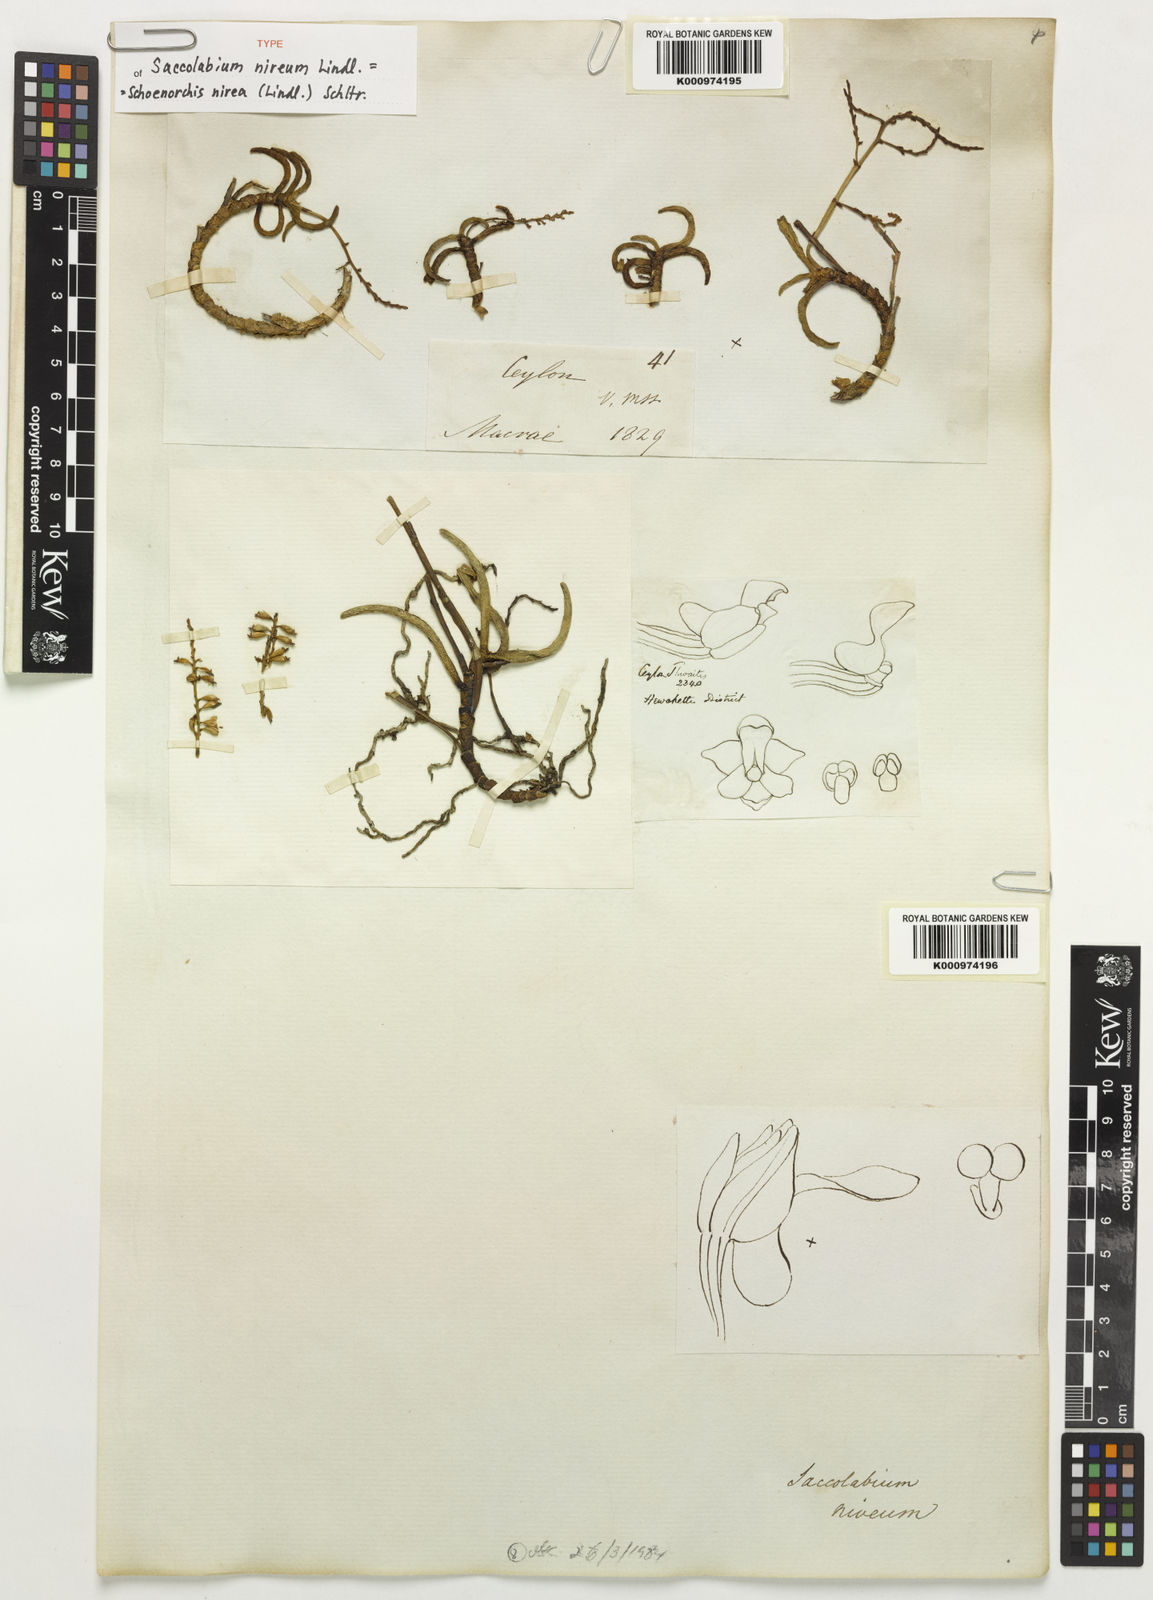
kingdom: Plantae
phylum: Tracheophyta
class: Liliopsida
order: Asparagales
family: Orchidaceae
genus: Schoenorchis
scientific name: Schoenorchis nivea
